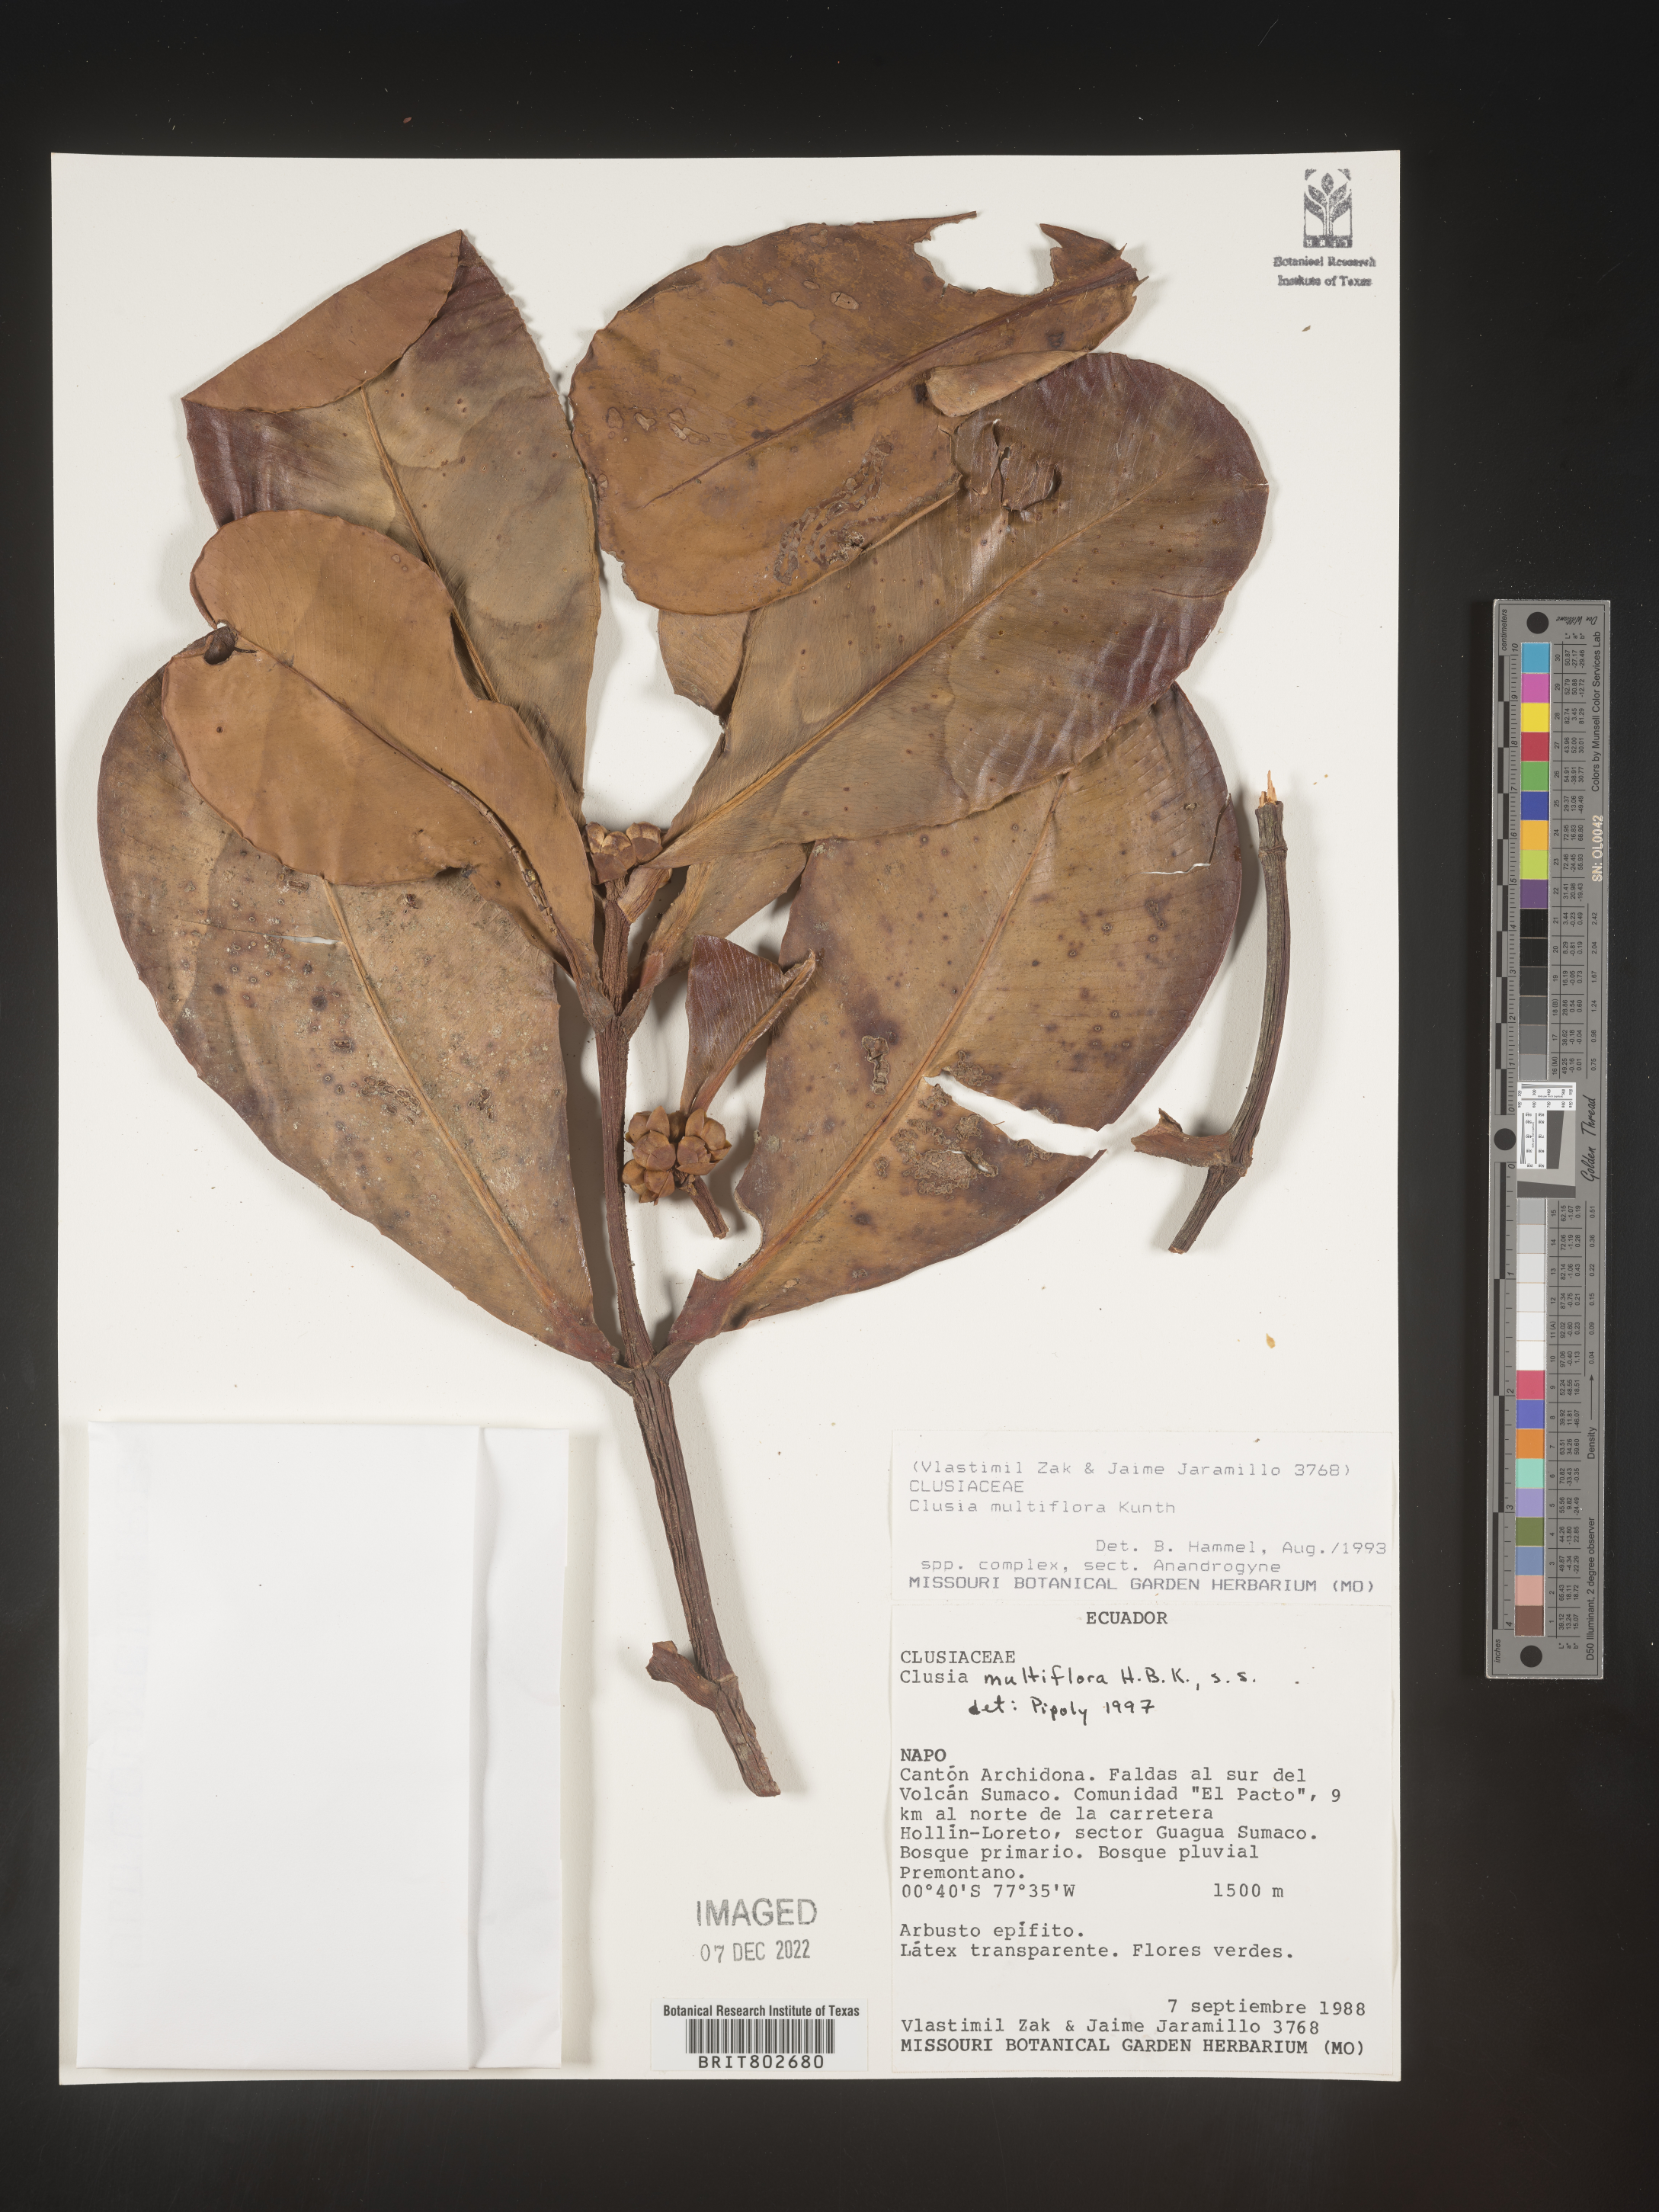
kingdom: Plantae
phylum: Tracheophyta
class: Magnoliopsida
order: Malpighiales
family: Clusiaceae
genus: Clusia
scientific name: Clusia multiflora
